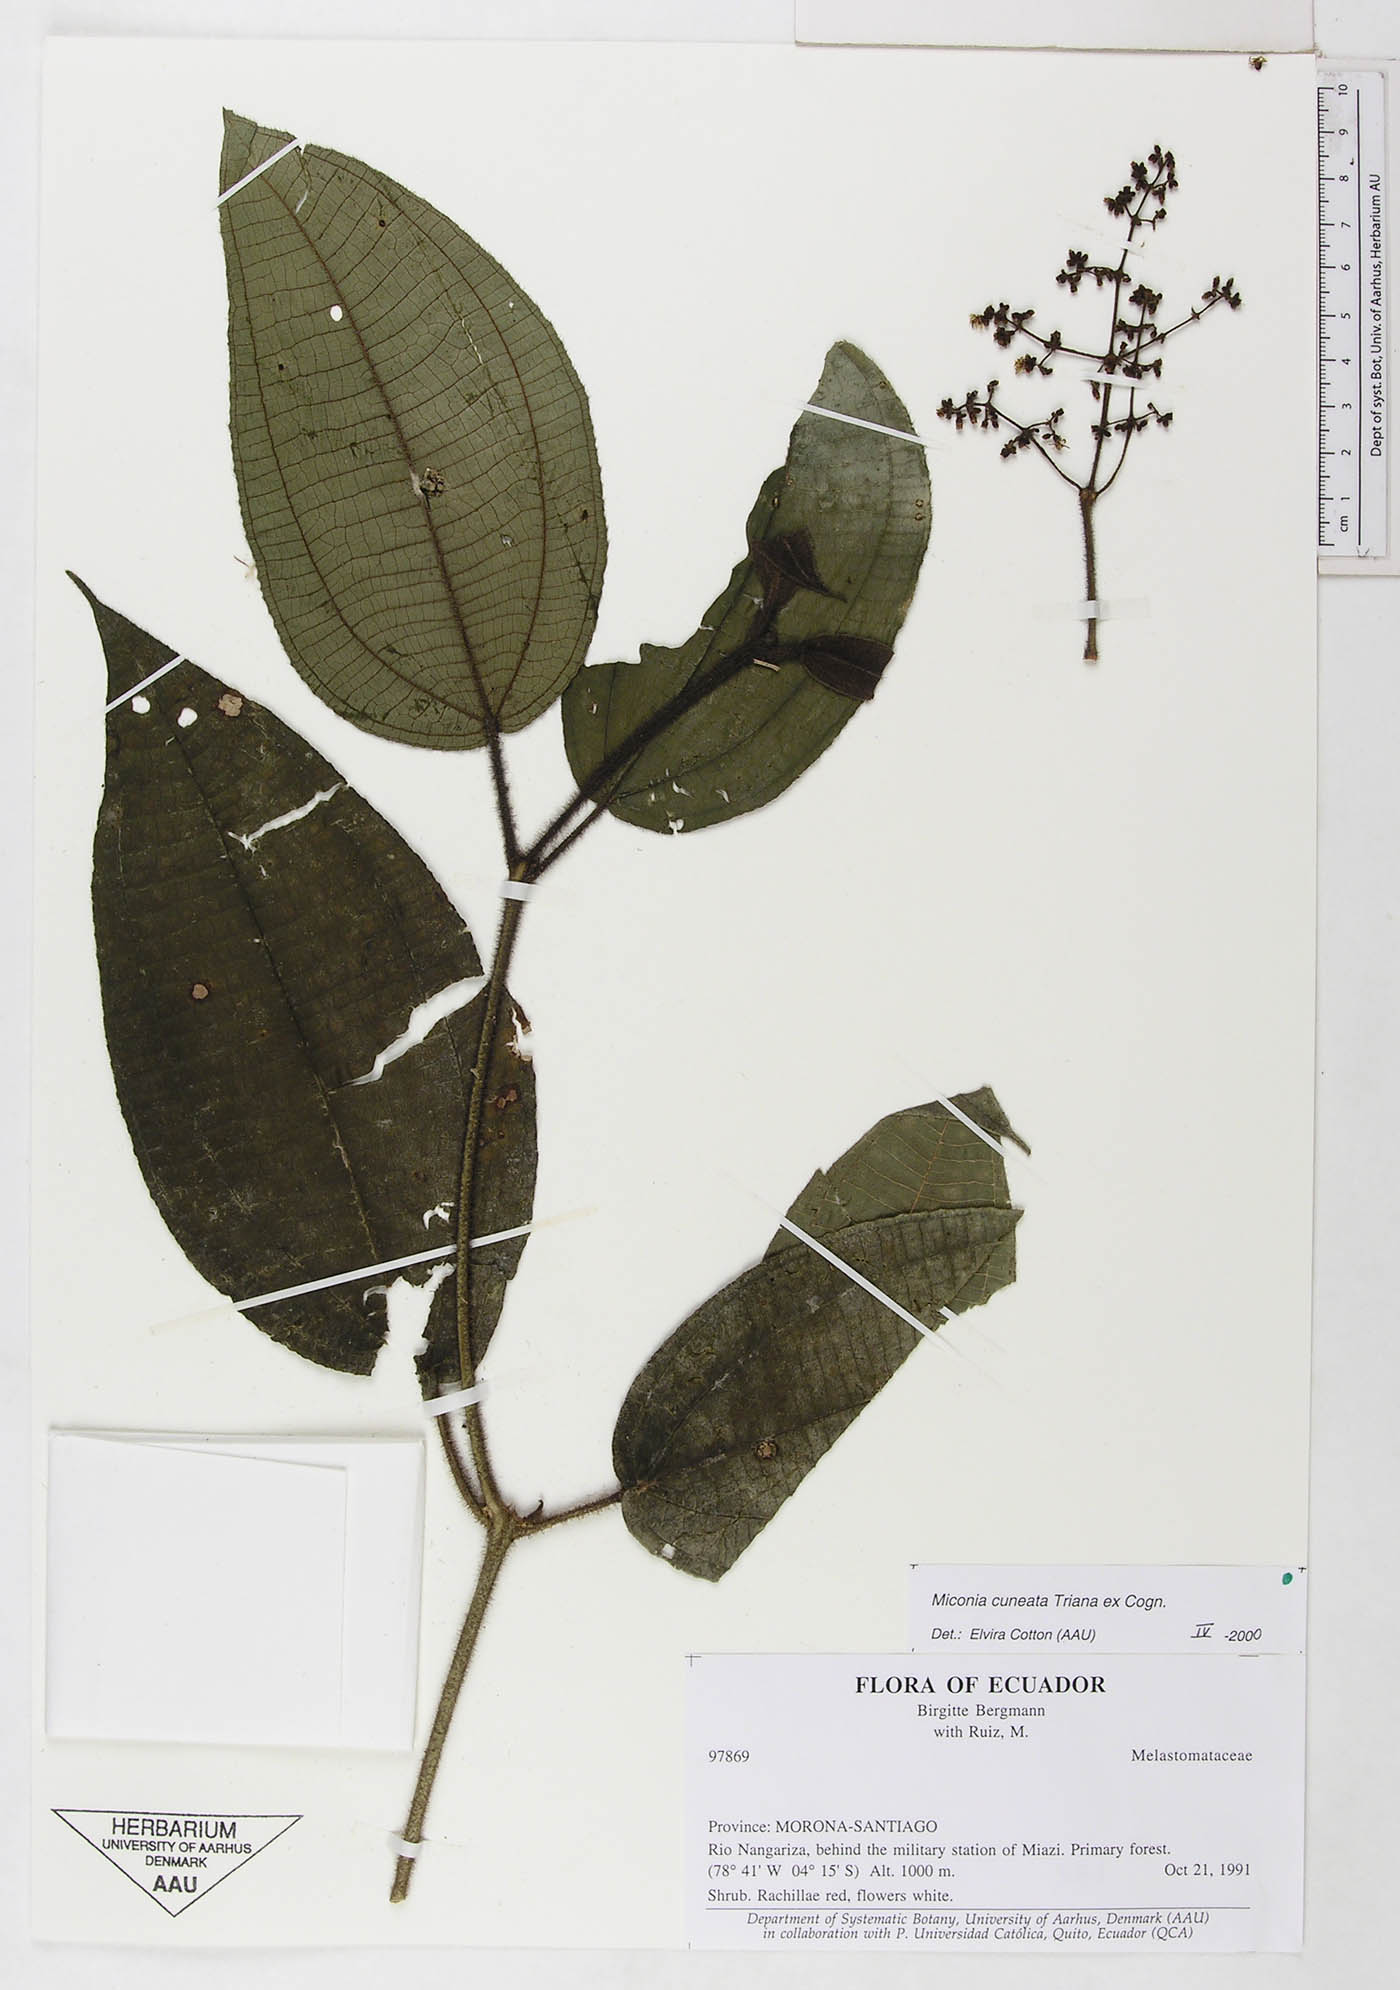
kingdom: Plantae
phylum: Tracheophyta
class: Magnoliopsida
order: Myrtales
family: Melastomataceae
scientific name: Melastomataceae
